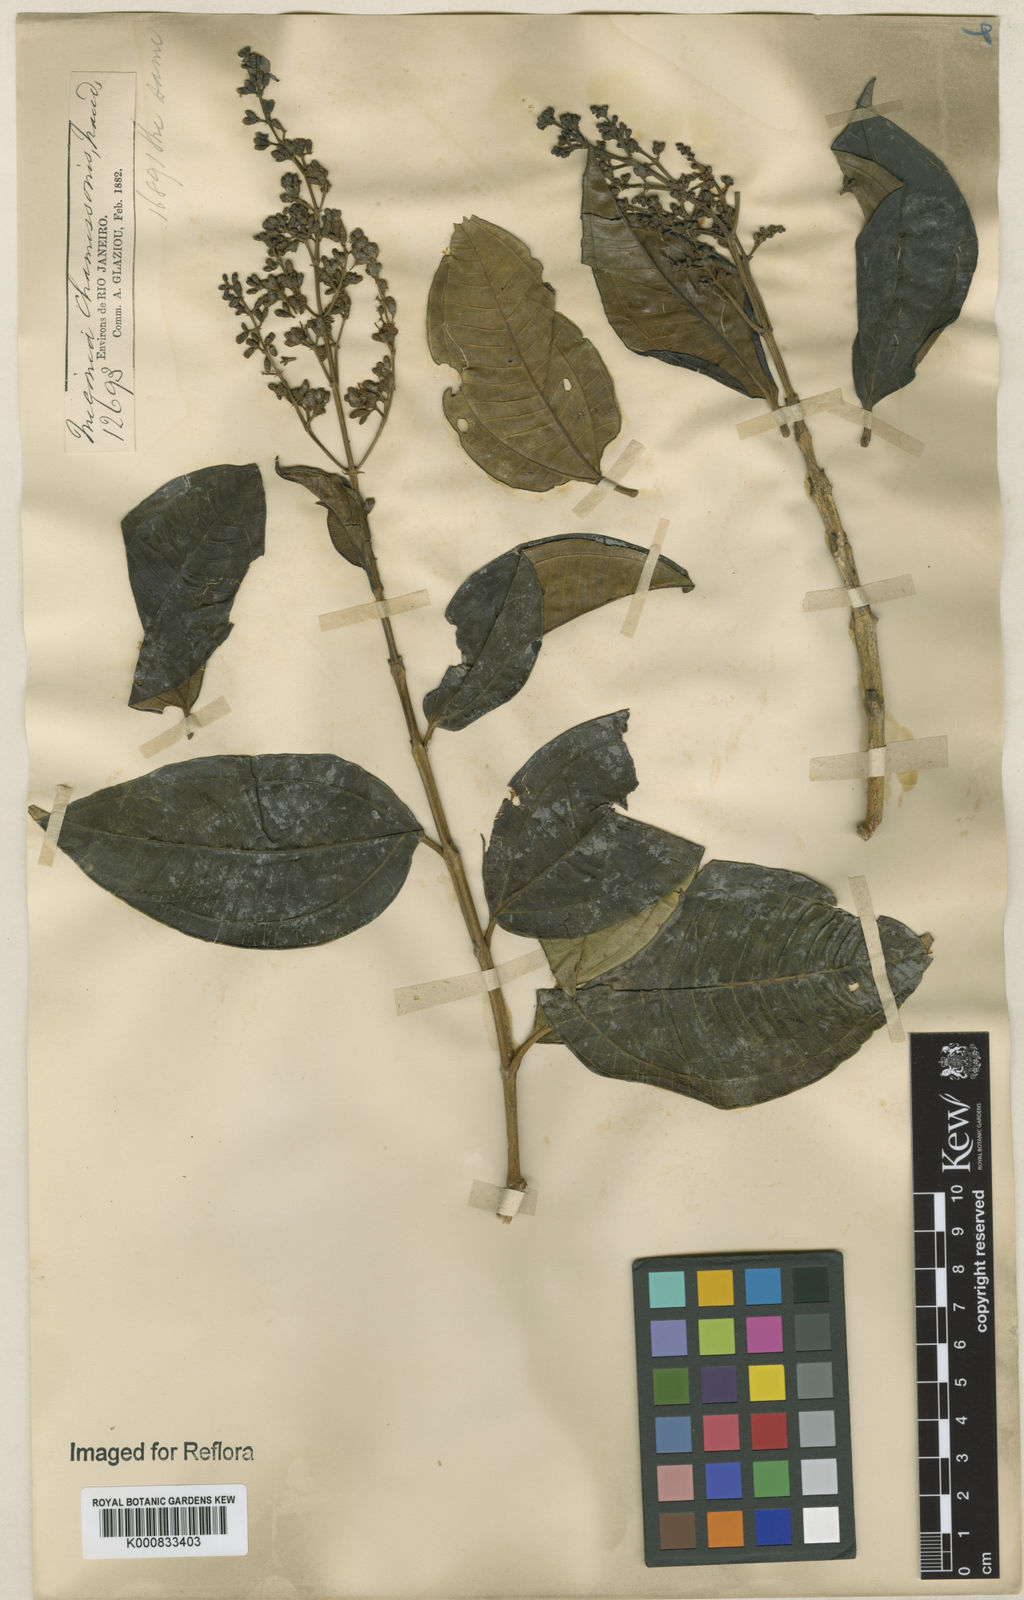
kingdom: Plantae
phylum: Tracheophyta
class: Magnoliopsida
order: Myrtales
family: Melastomataceae
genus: Miconia
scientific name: Miconia chamissois
